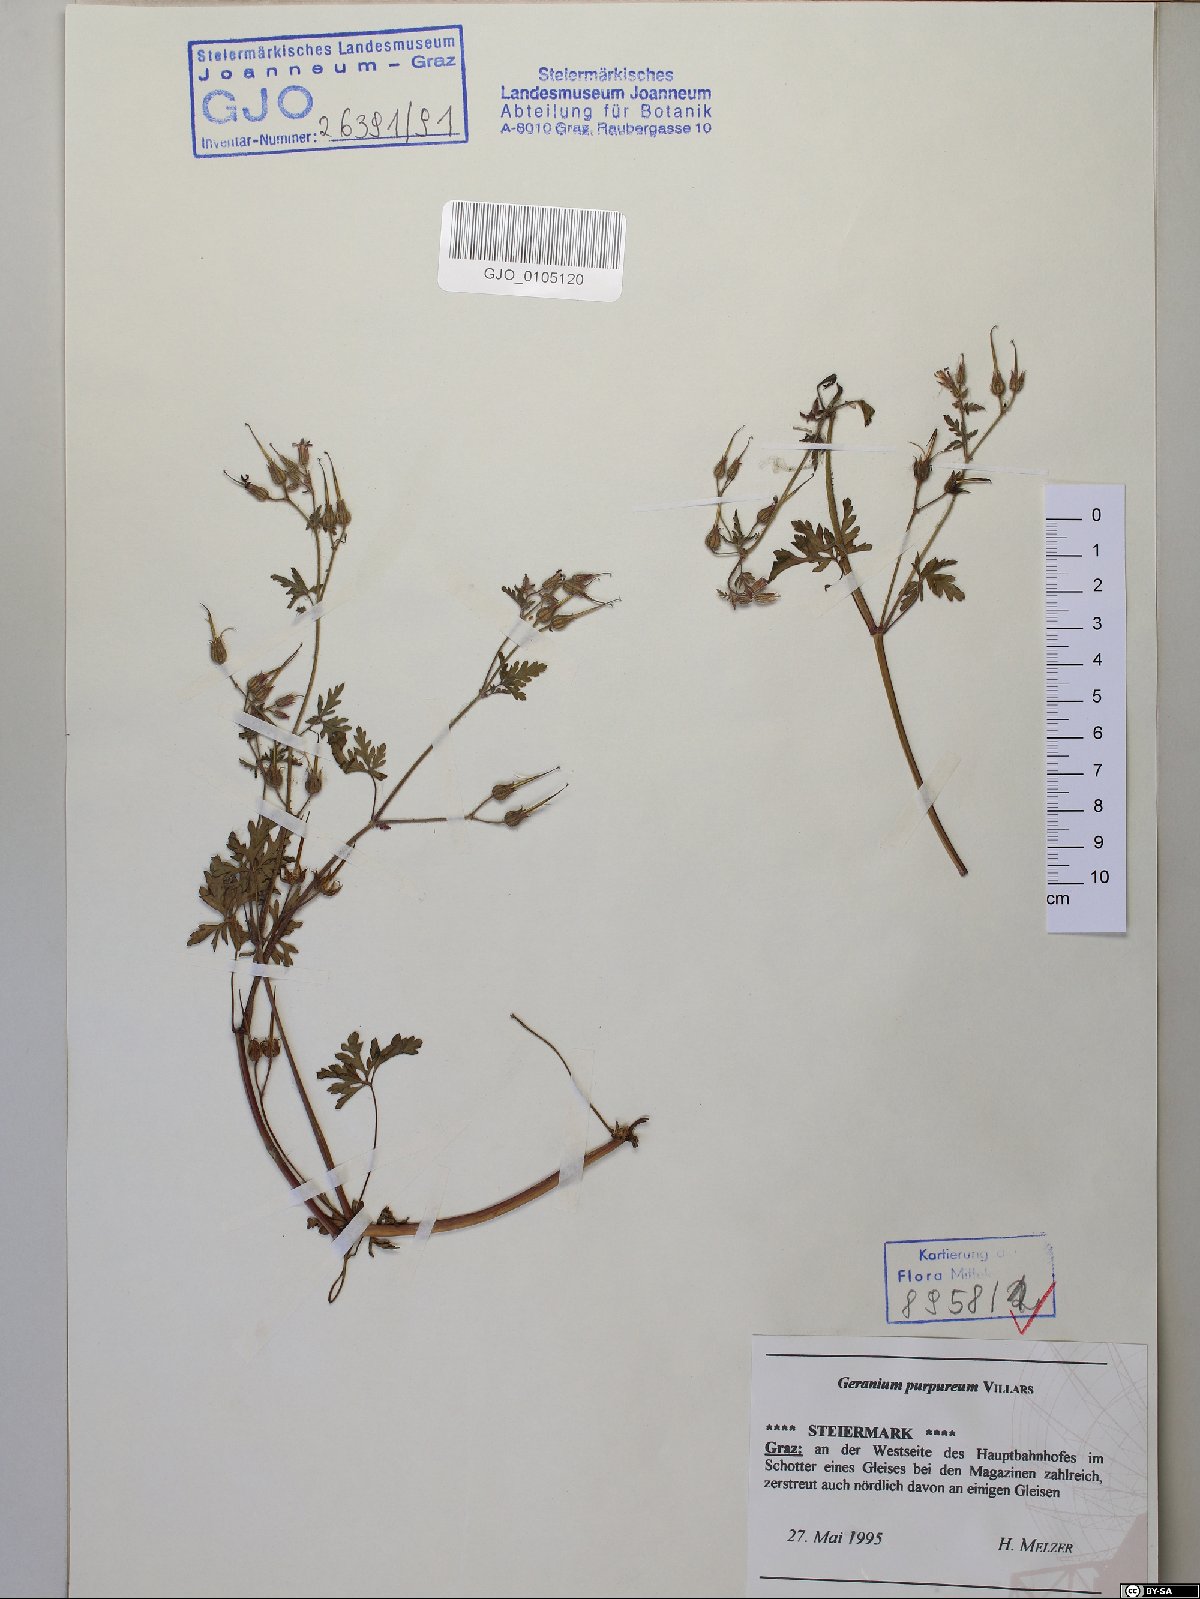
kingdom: Plantae
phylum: Tracheophyta
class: Magnoliopsida
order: Geraniales
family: Geraniaceae
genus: Geranium
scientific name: Geranium purpureum
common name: Little-robin
